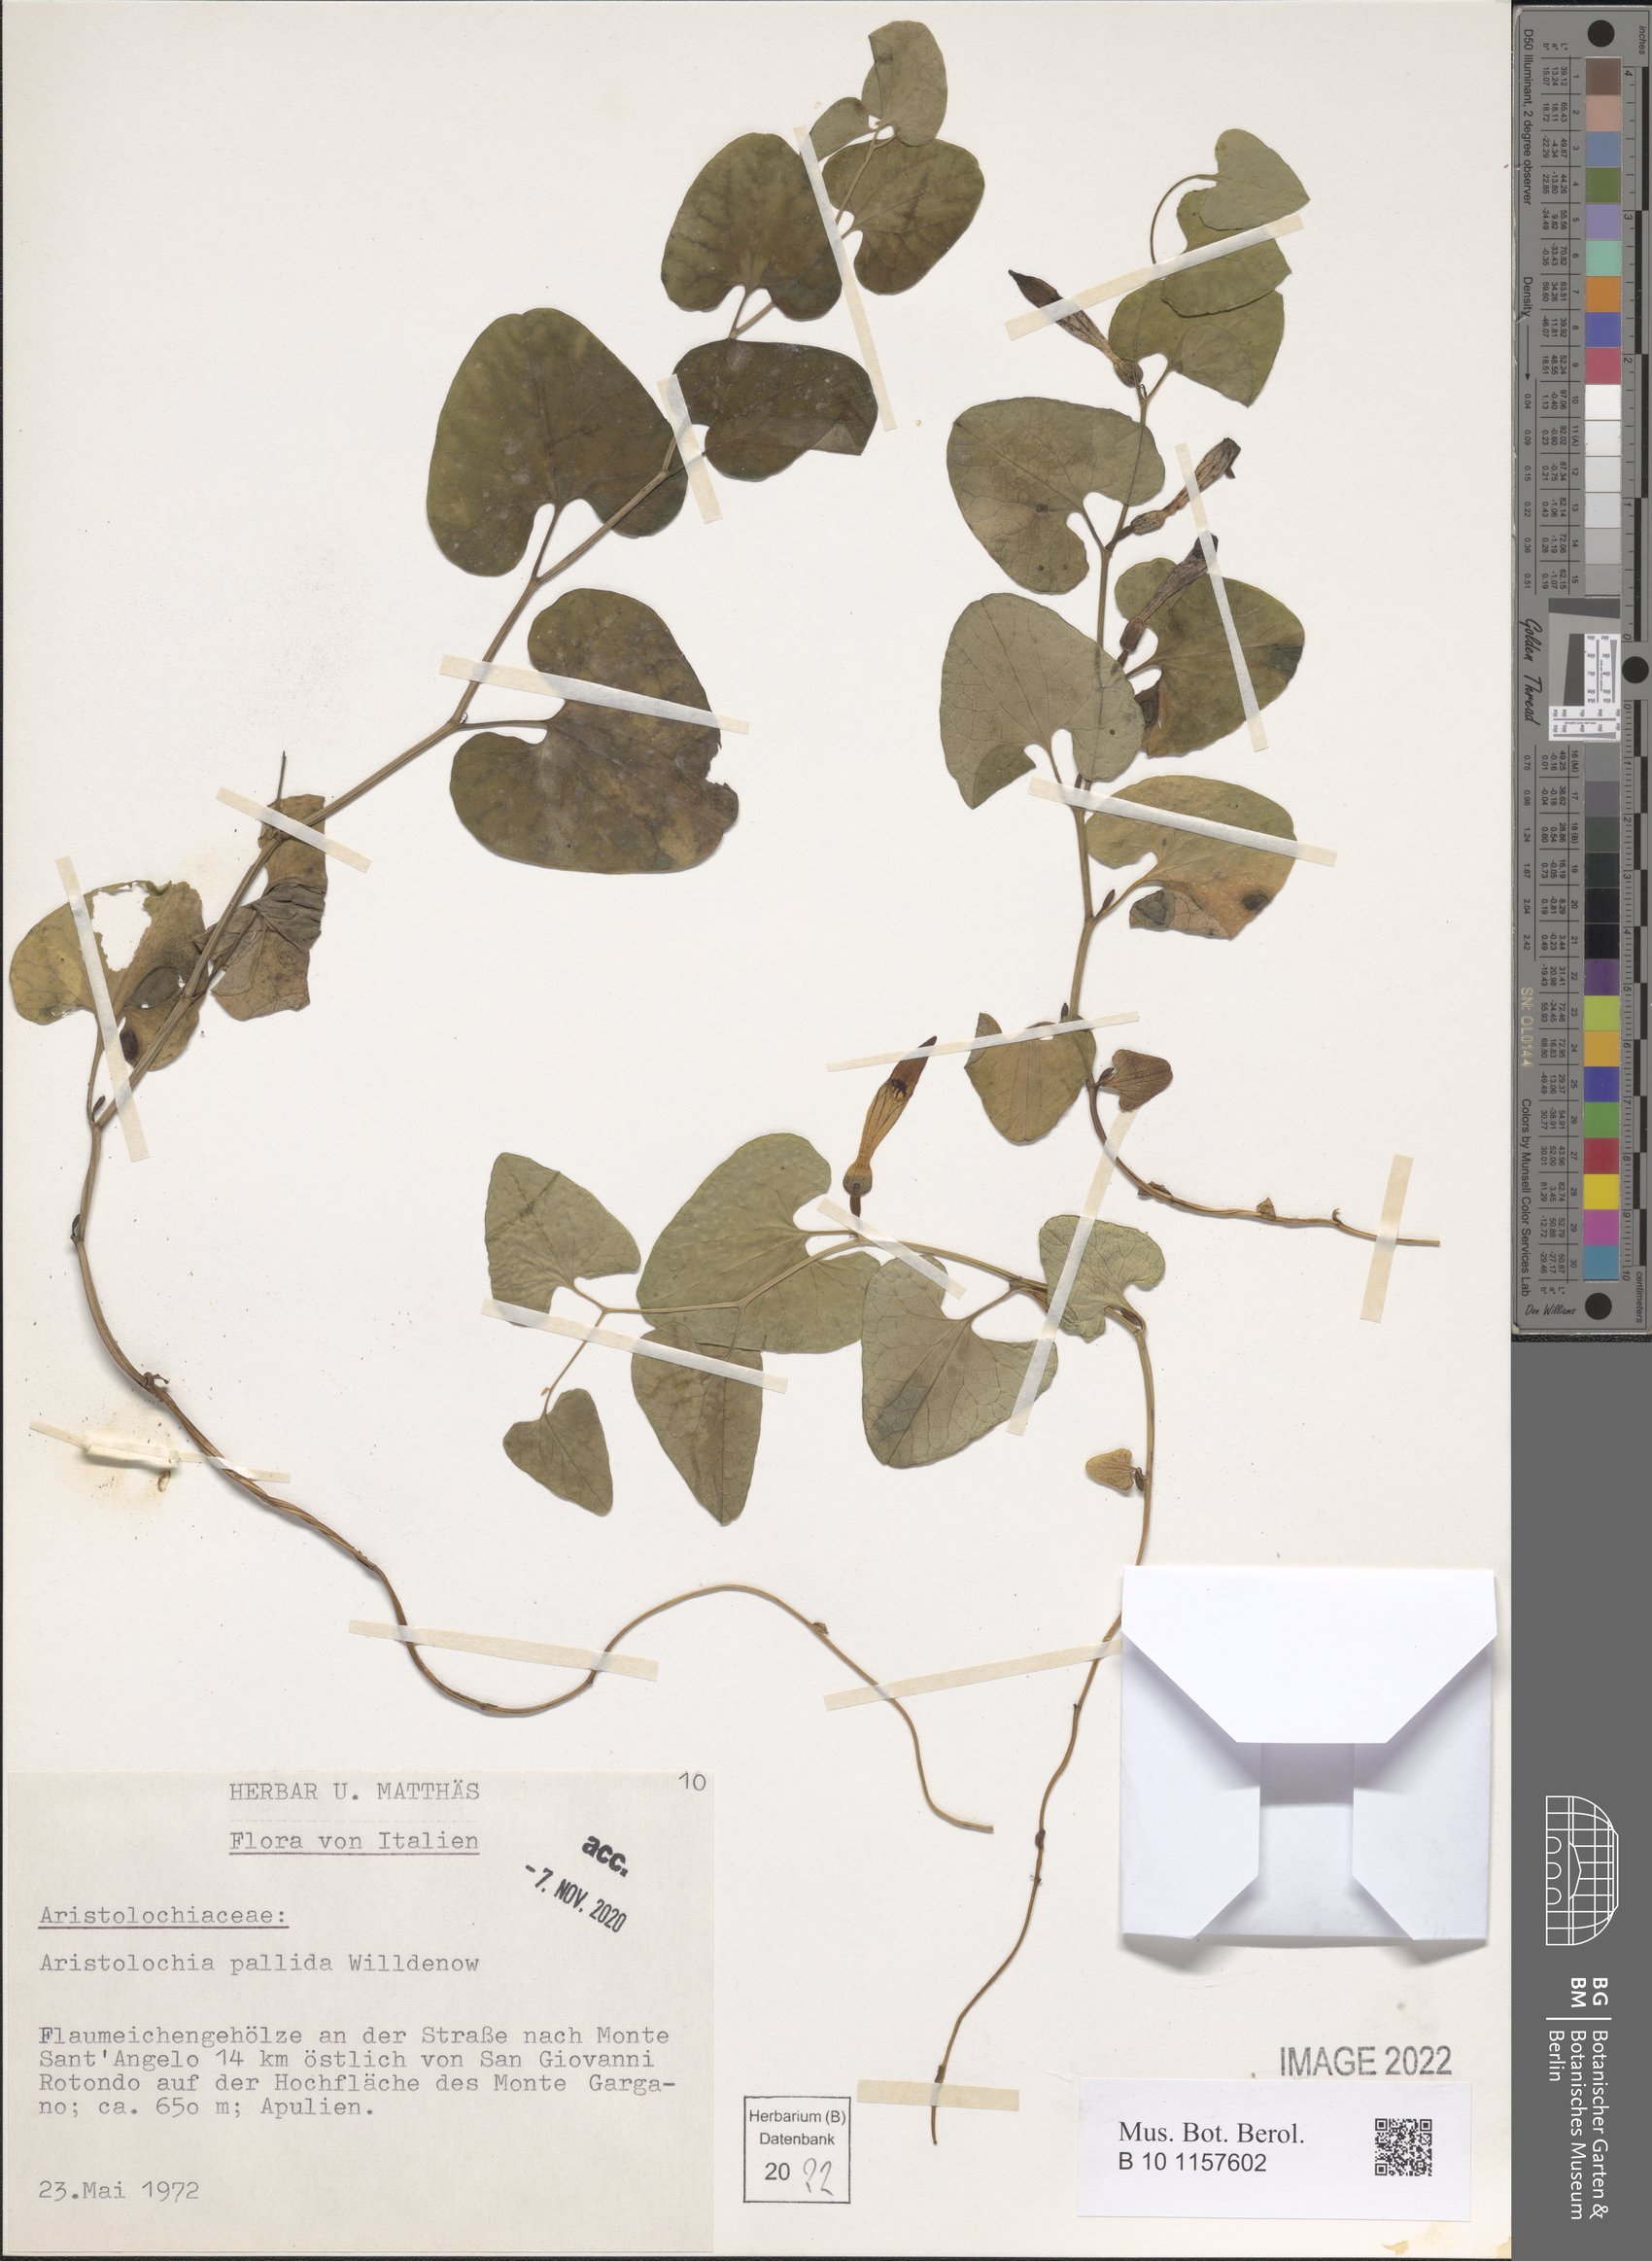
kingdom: Plantae
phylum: Tracheophyta
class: Magnoliopsida
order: Piperales
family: Aristolochiaceae
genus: Aristolochia
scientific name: Aristolochia pallida
